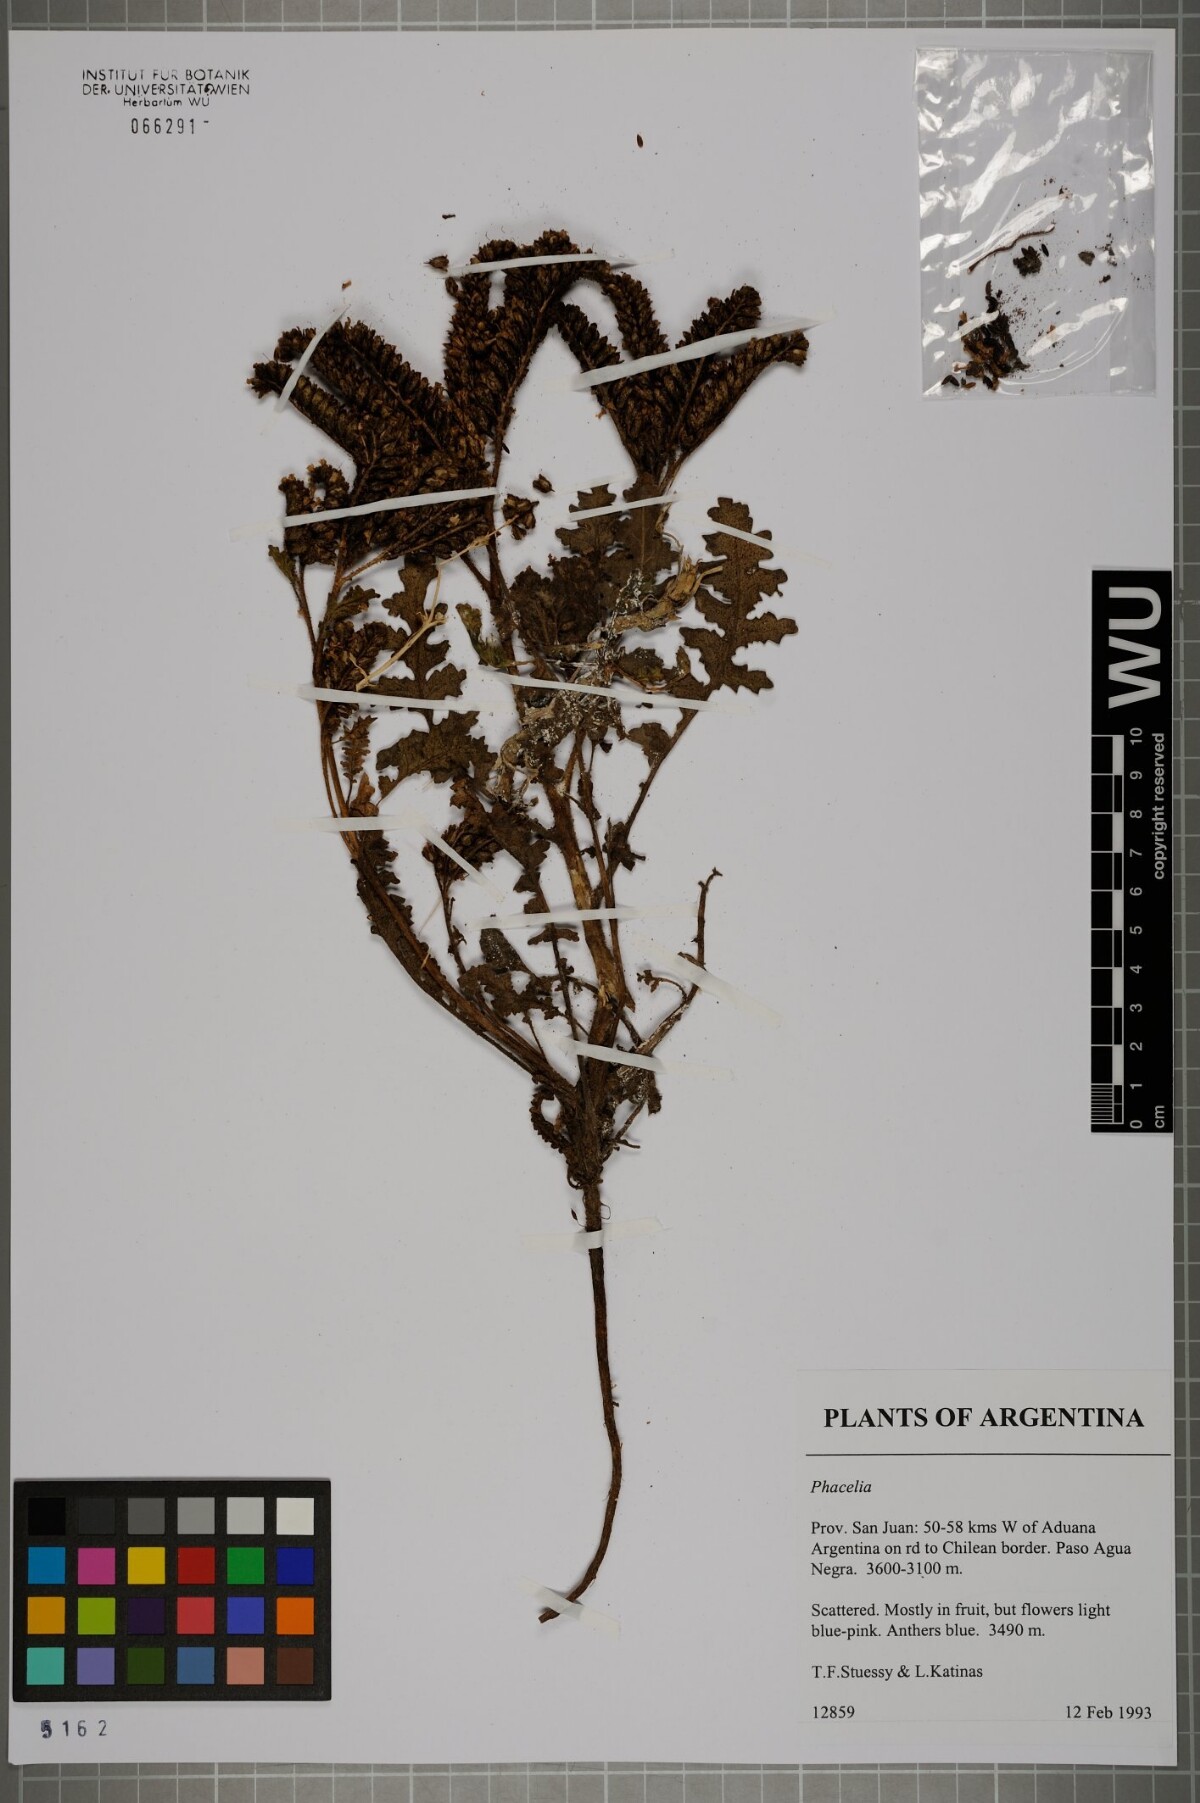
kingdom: Plantae
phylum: Tracheophyta
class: Magnoliopsida
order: Boraginales
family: Hydrophyllaceae
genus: Phacelia
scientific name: Phacelia
